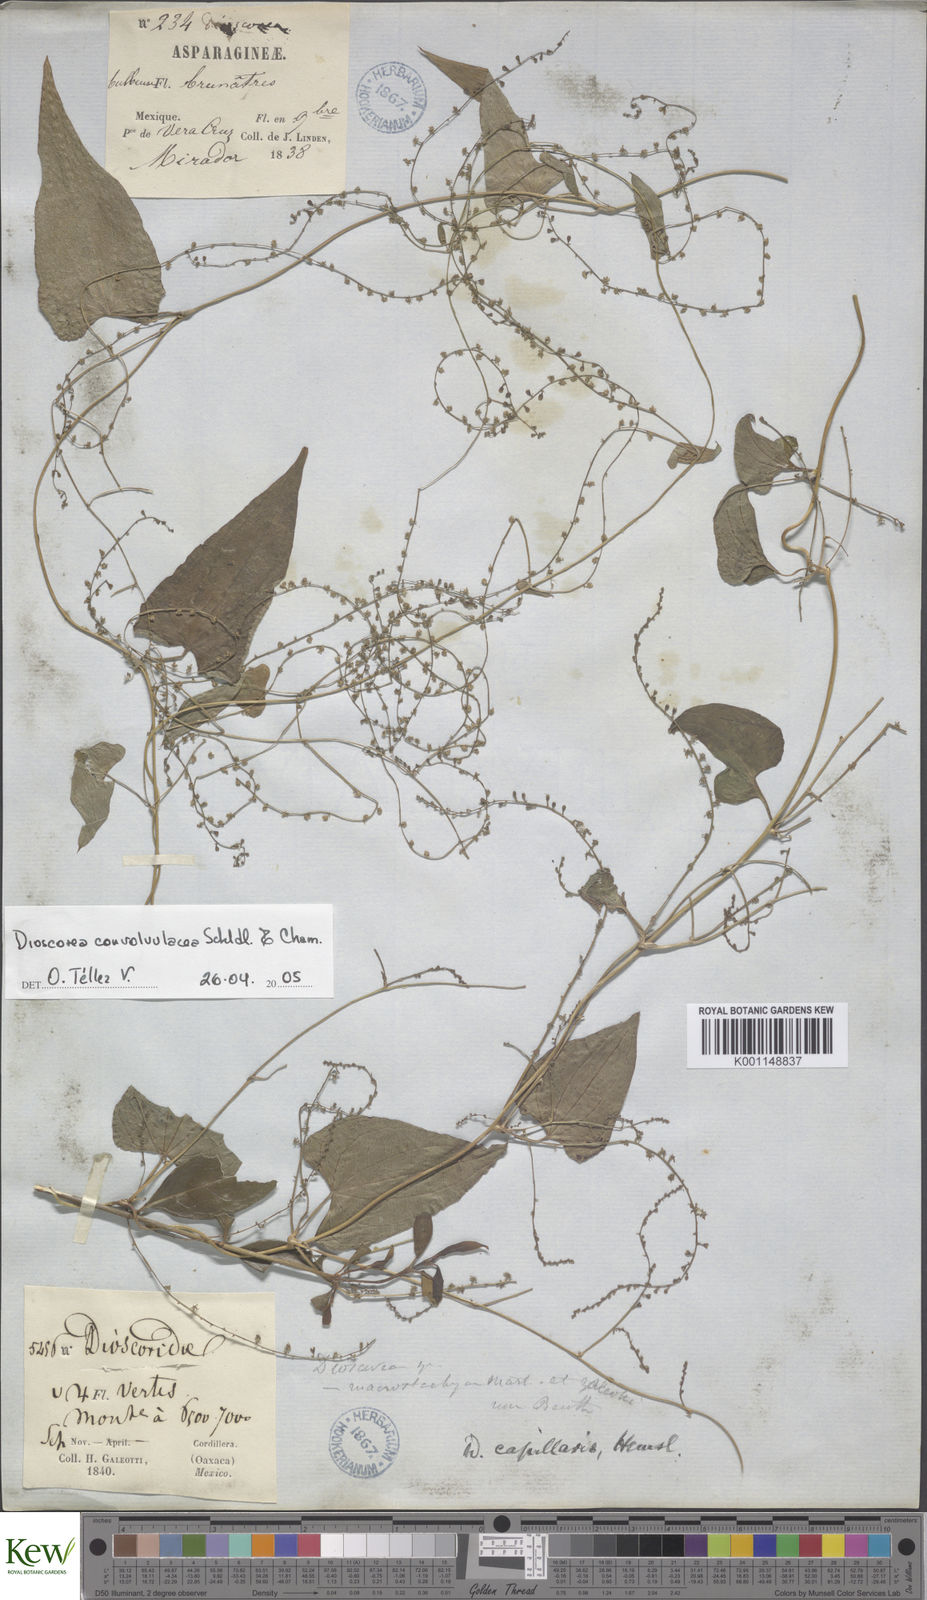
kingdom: Plantae
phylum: Tracheophyta
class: Liliopsida
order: Dioscoreales
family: Dioscoreaceae
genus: Dioscorea
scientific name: Dioscorea convolvulacea
